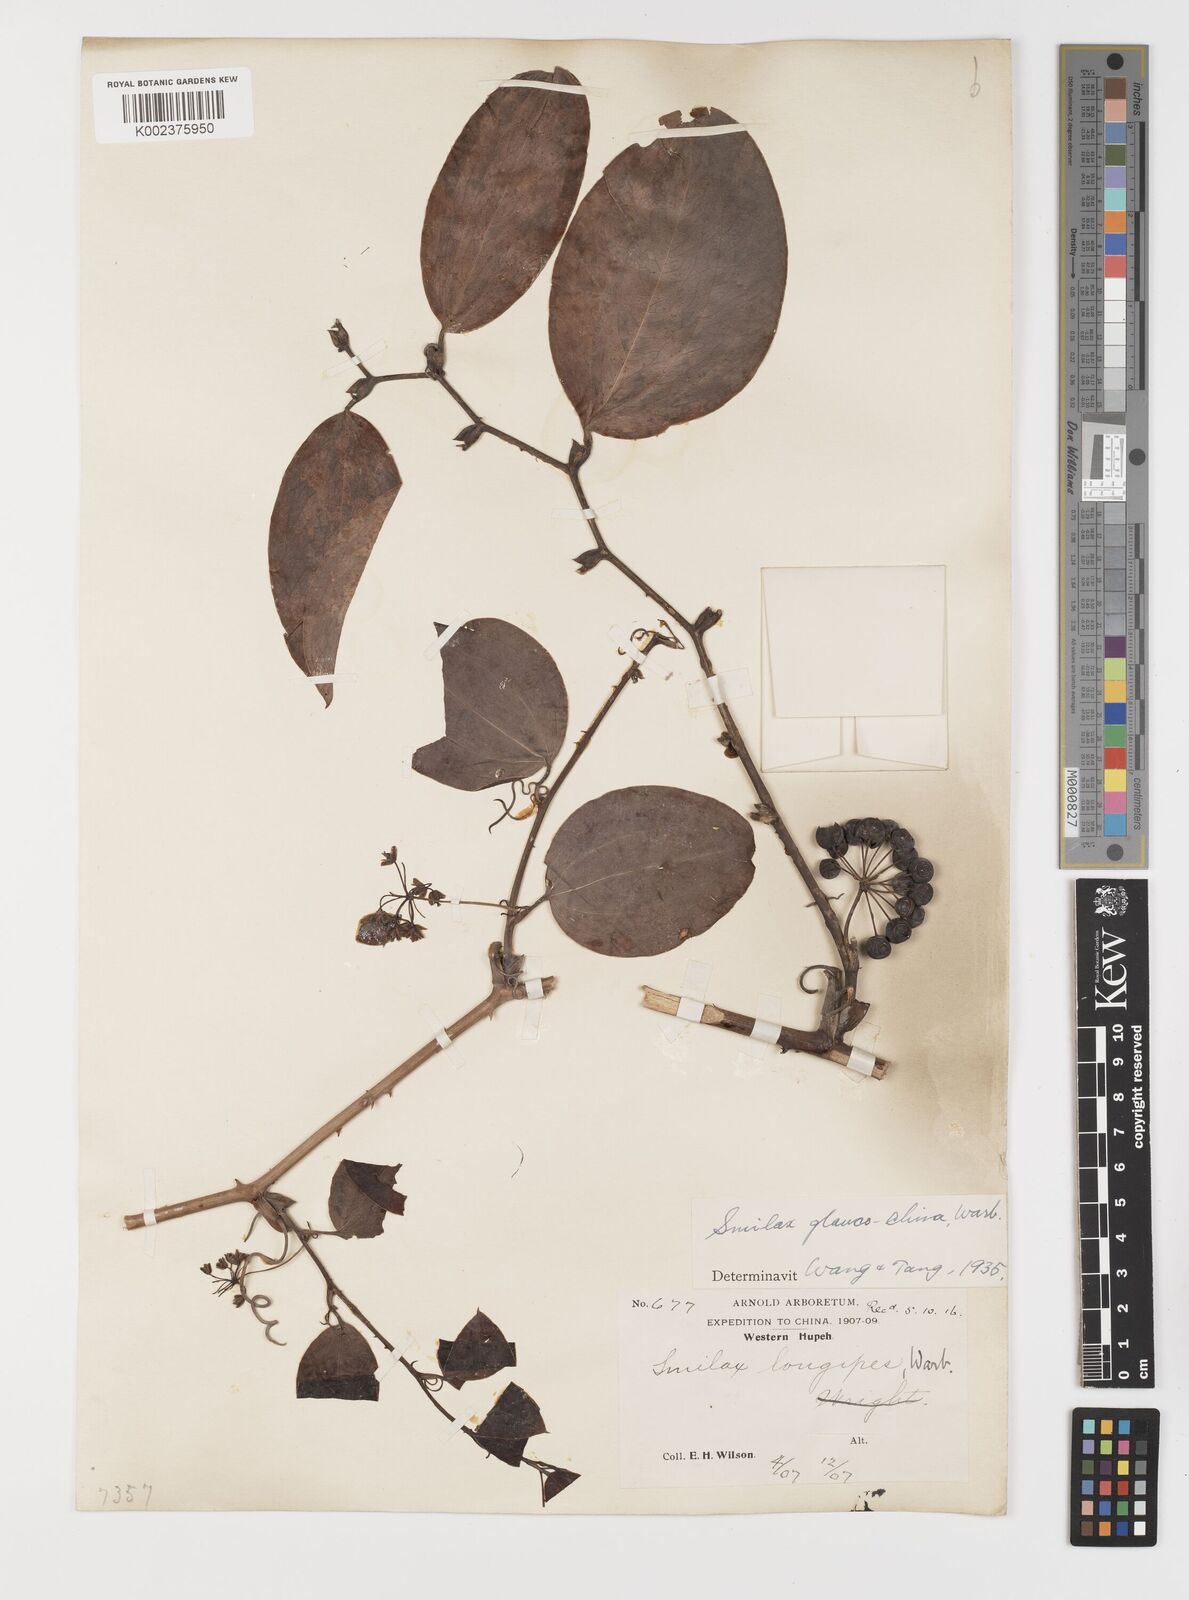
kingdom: Plantae
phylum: Tracheophyta
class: Liliopsida
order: Liliales
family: Smilacaceae
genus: Smilax
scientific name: Smilax glaucochina
